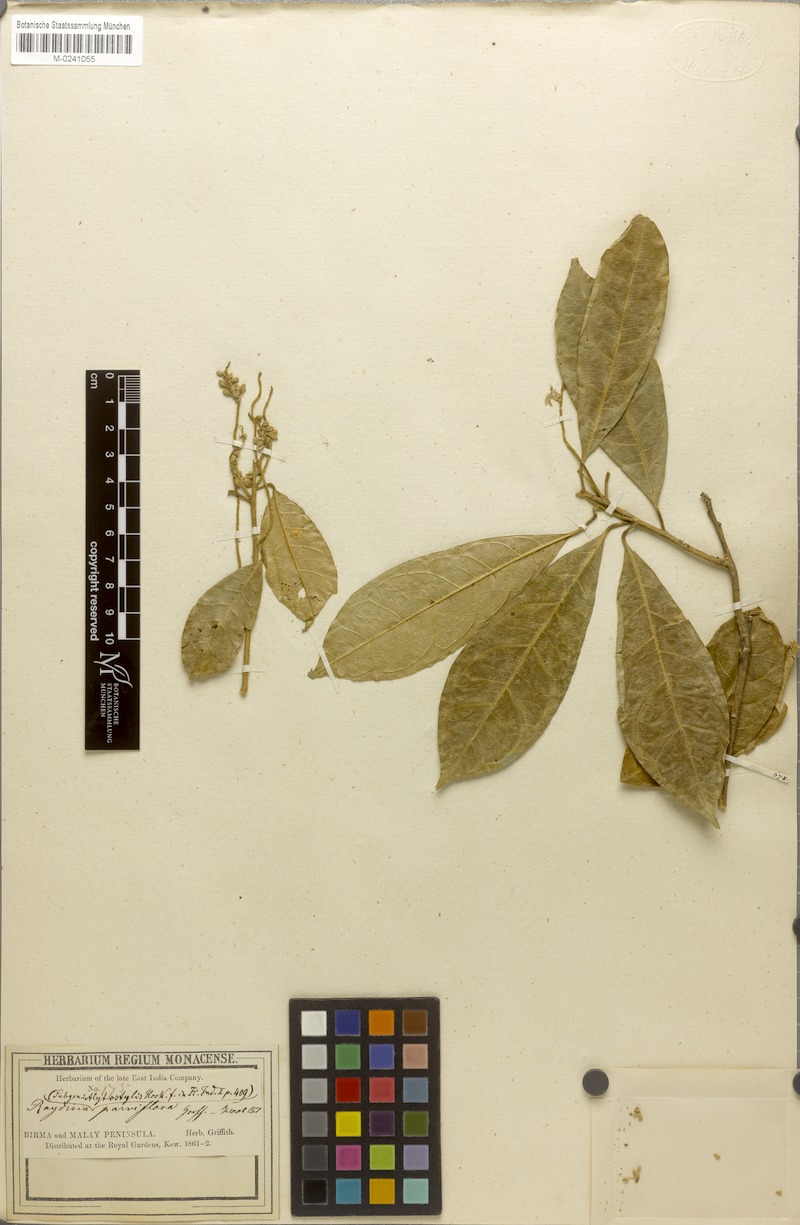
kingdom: Plantae
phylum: Tracheophyta
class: Magnoliopsida
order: Brassicales
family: Stixaceae
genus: Stixis
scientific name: Stixis scandens
